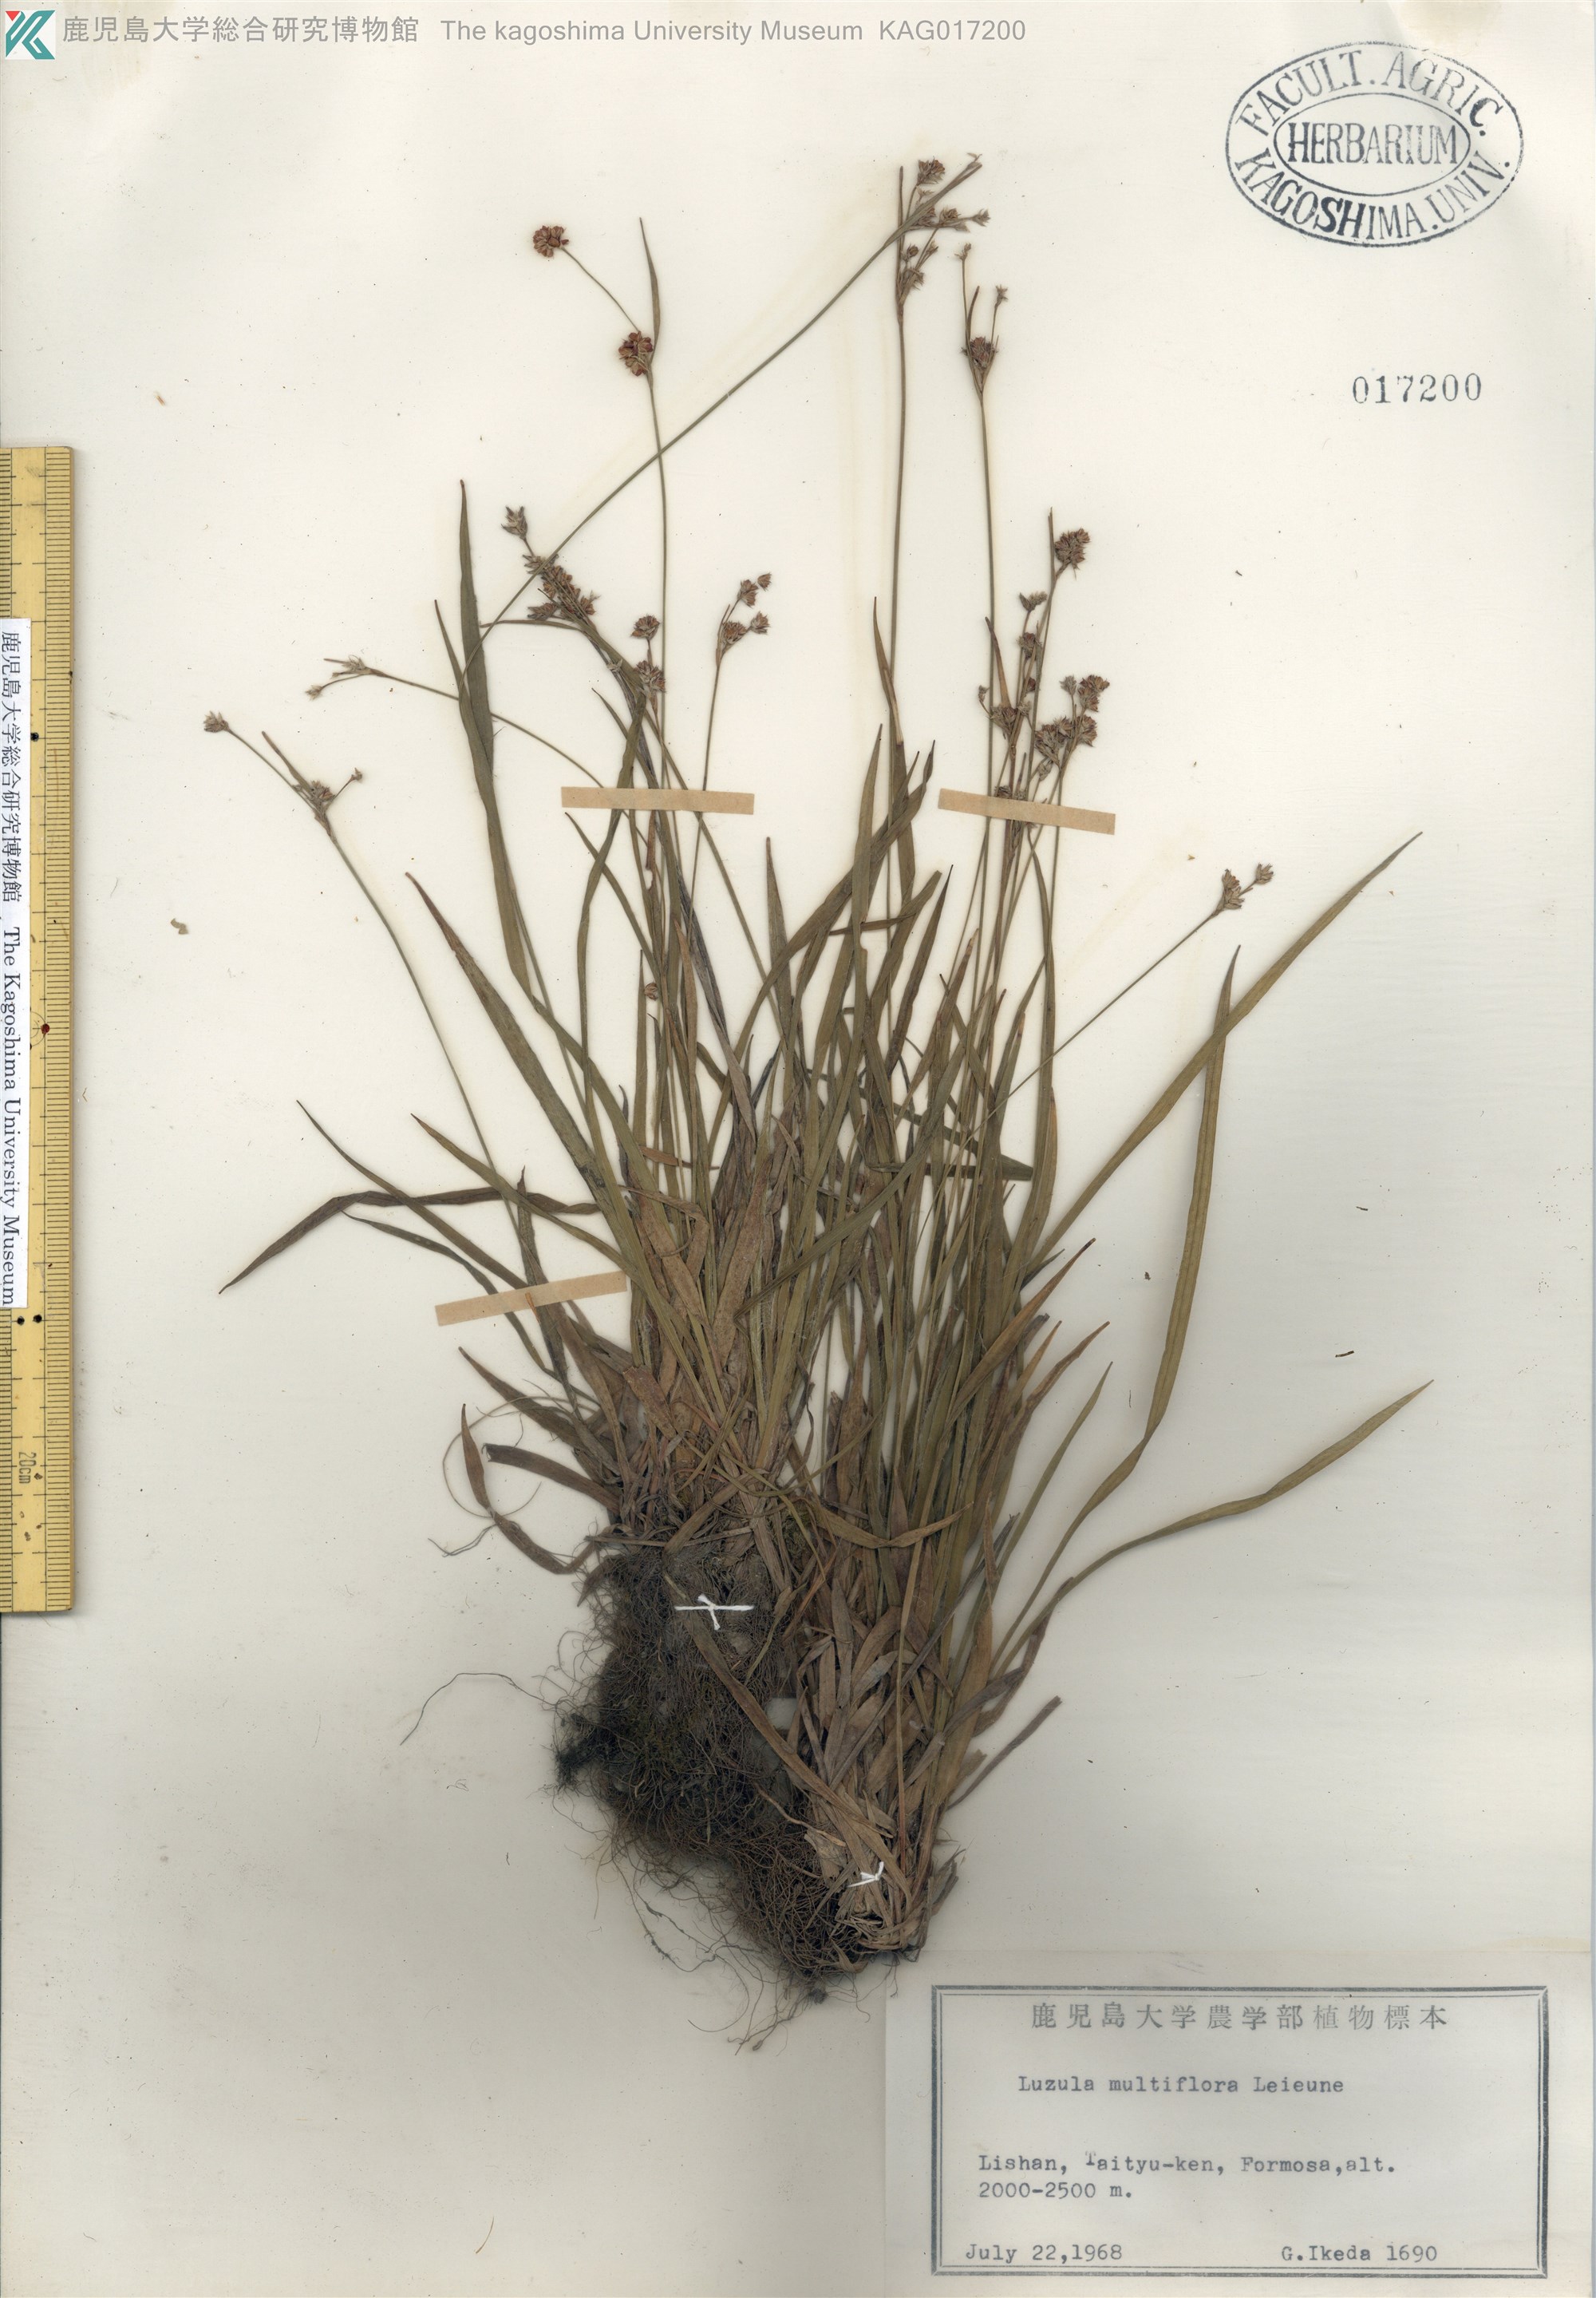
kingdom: Plantae
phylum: Tracheophyta
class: Liliopsida
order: Poales
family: Juncaceae
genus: Luzula
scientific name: Luzula multiflora
